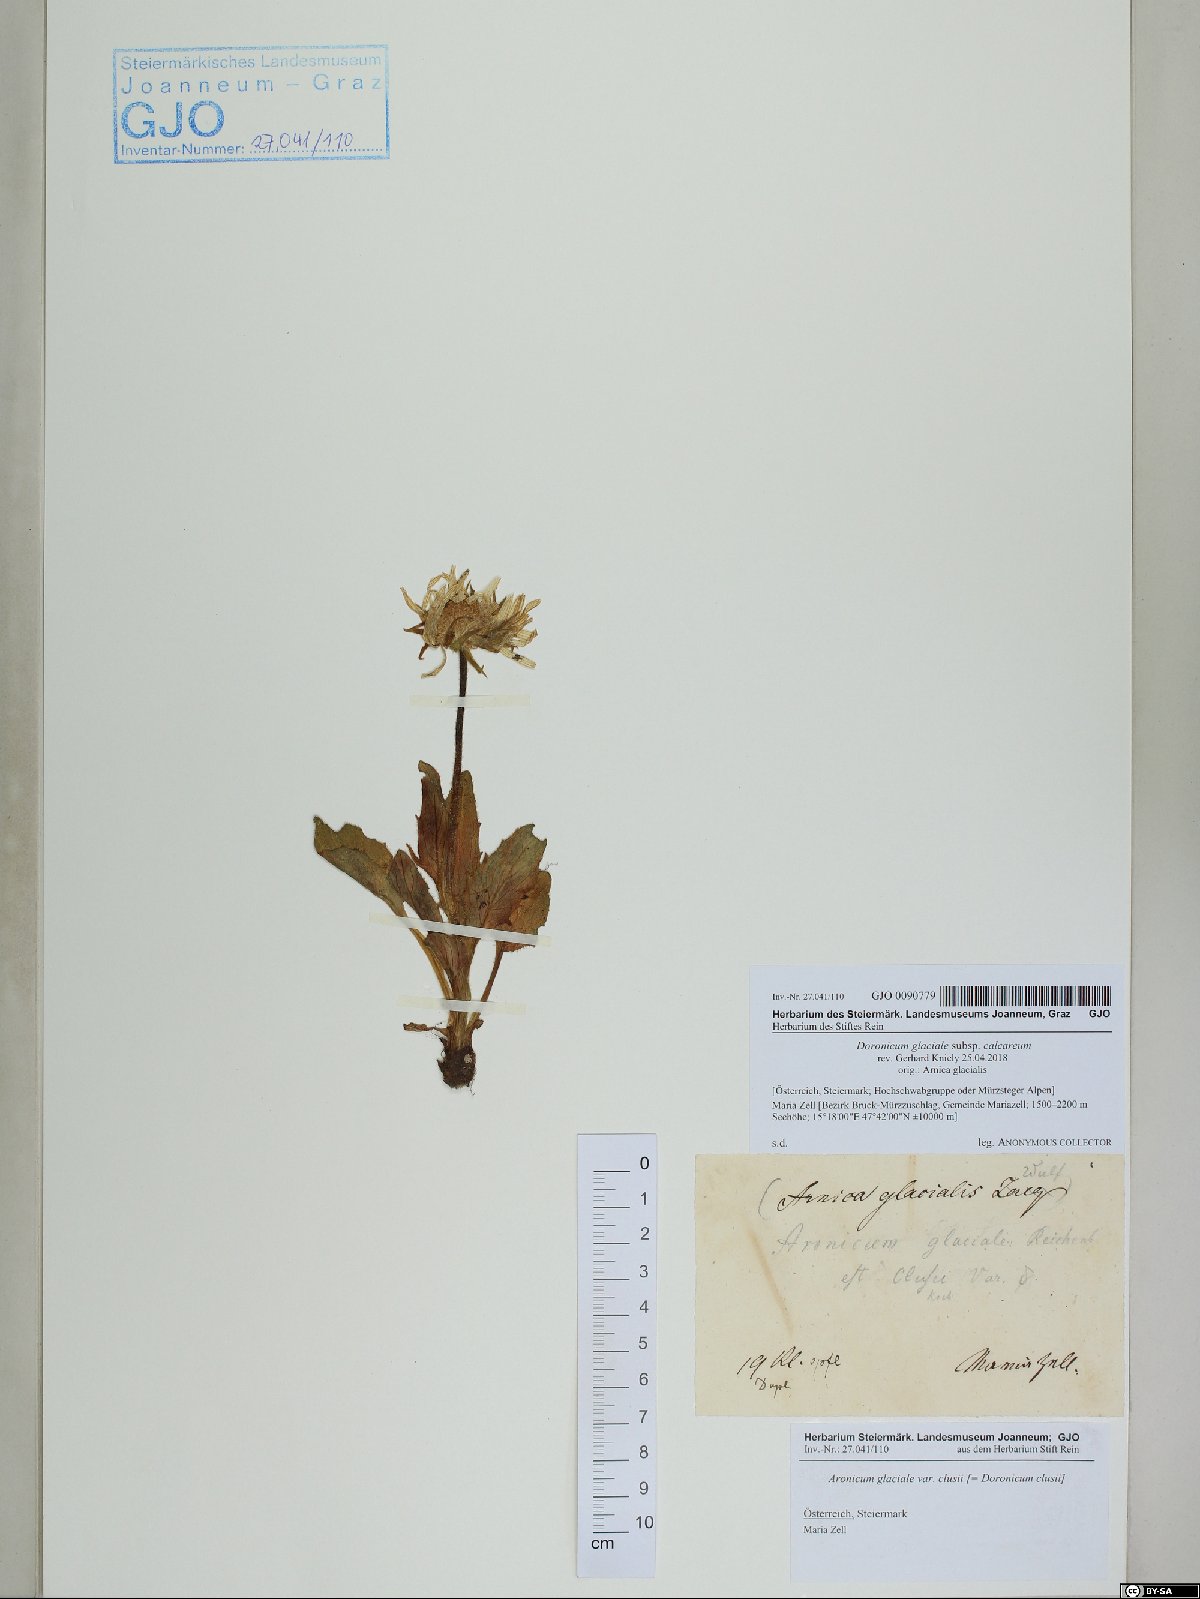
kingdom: Plantae
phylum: Tracheophyta
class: Magnoliopsida
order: Asterales
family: Asteraceae
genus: Doronicum
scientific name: Doronicum glaciale
